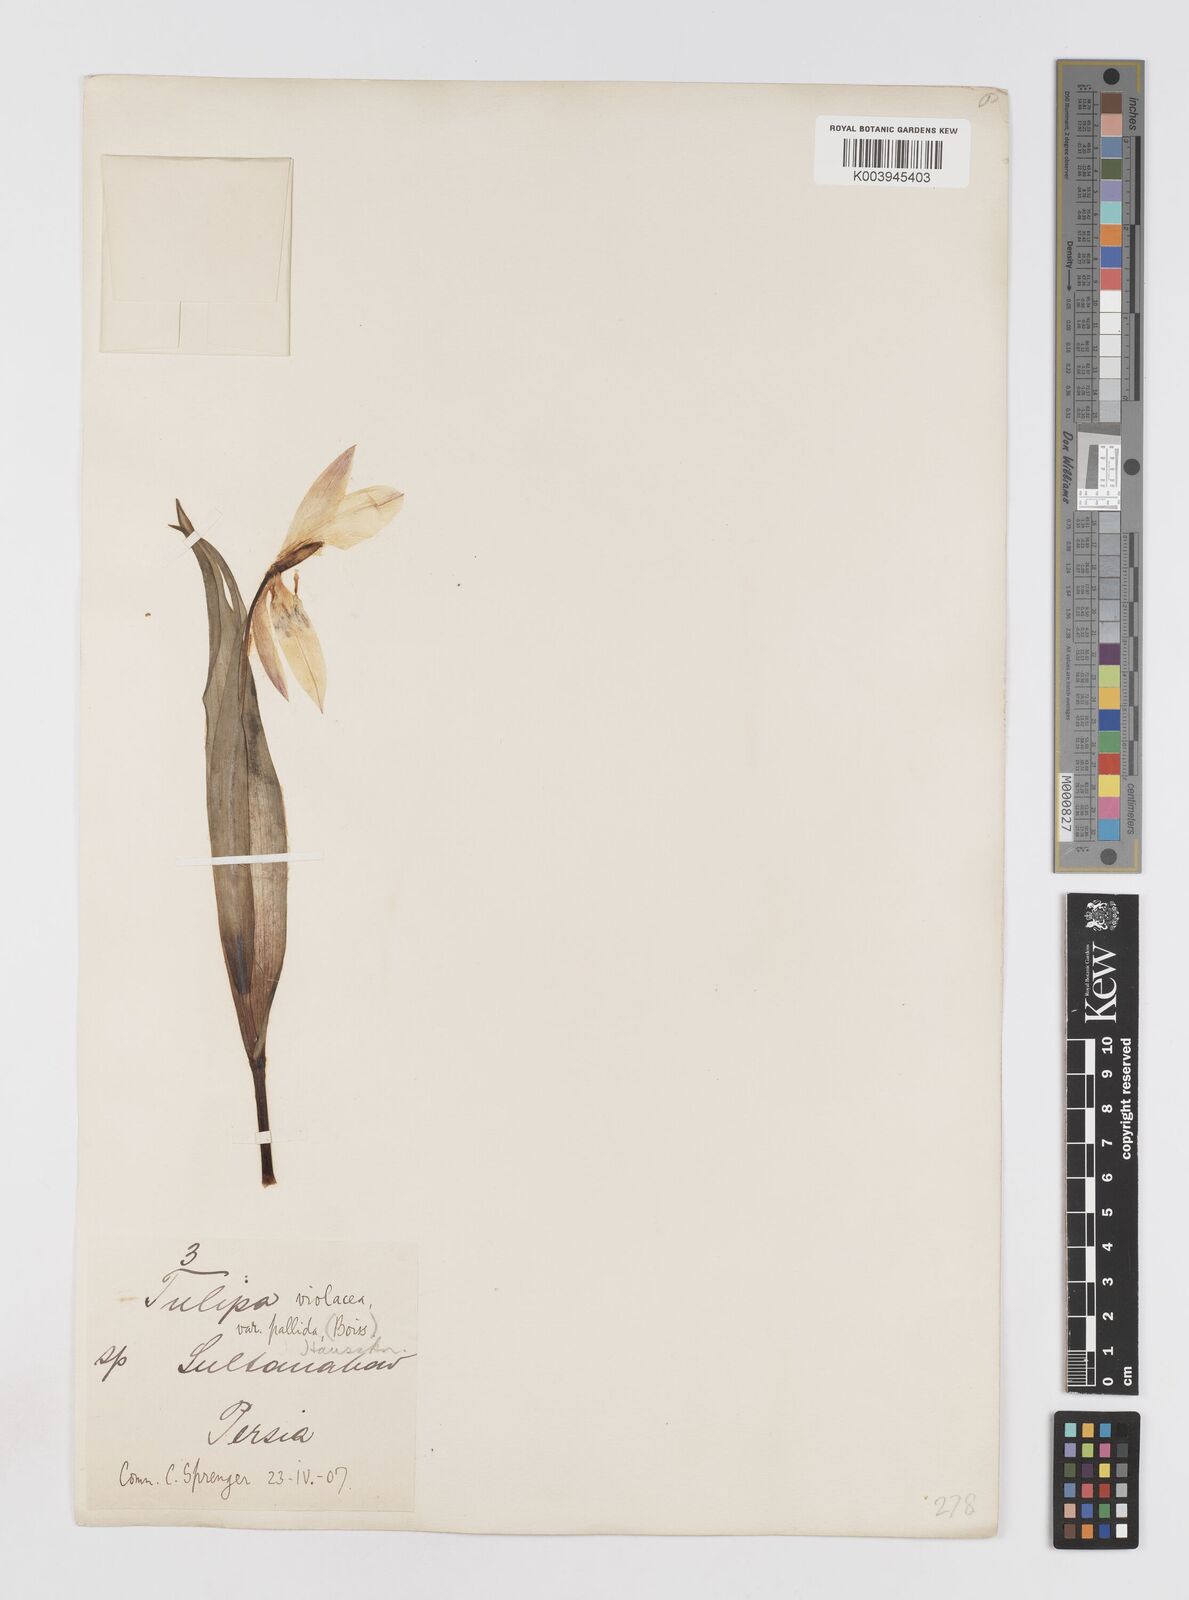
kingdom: Plantae
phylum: Tracheophyta
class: Liliopsida
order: Liliales
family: Liliaceae
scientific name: Liliaceae
